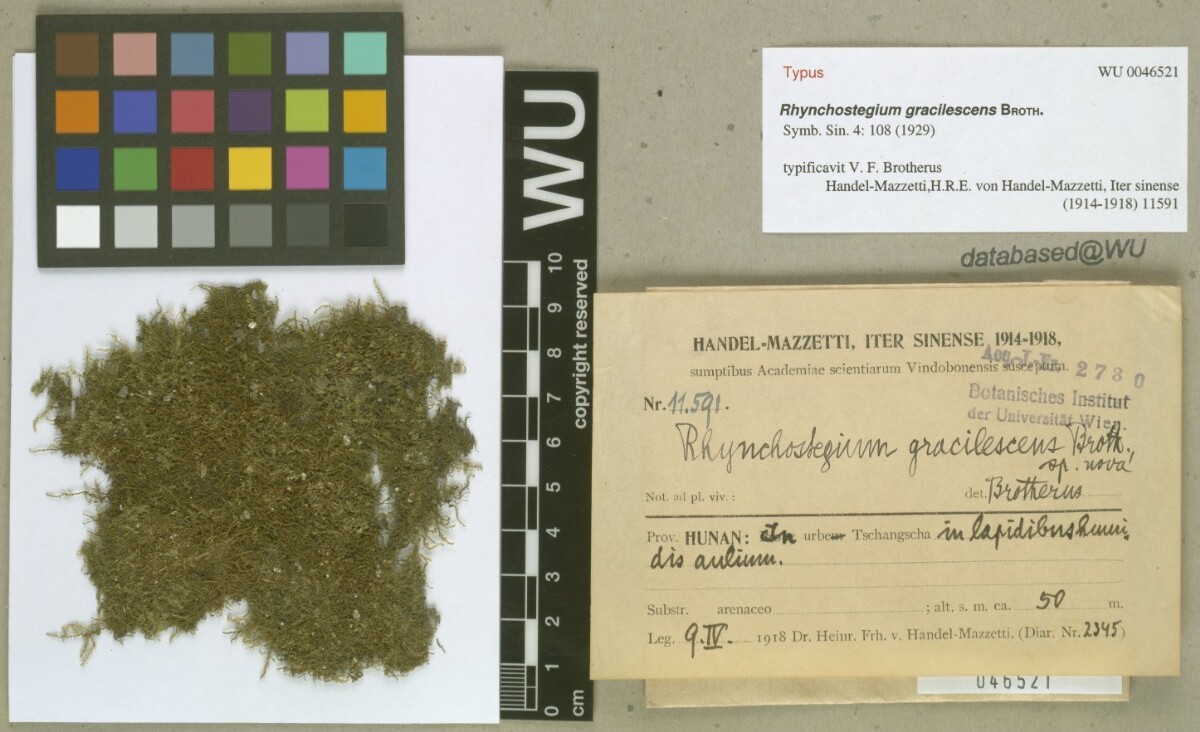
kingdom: Plantae
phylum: Bryophyta
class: Bryopsida
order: Hypnales
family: Brachytheciaceae
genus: Oxyrrhynchium
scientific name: Oxyrrhynchium savatieri
